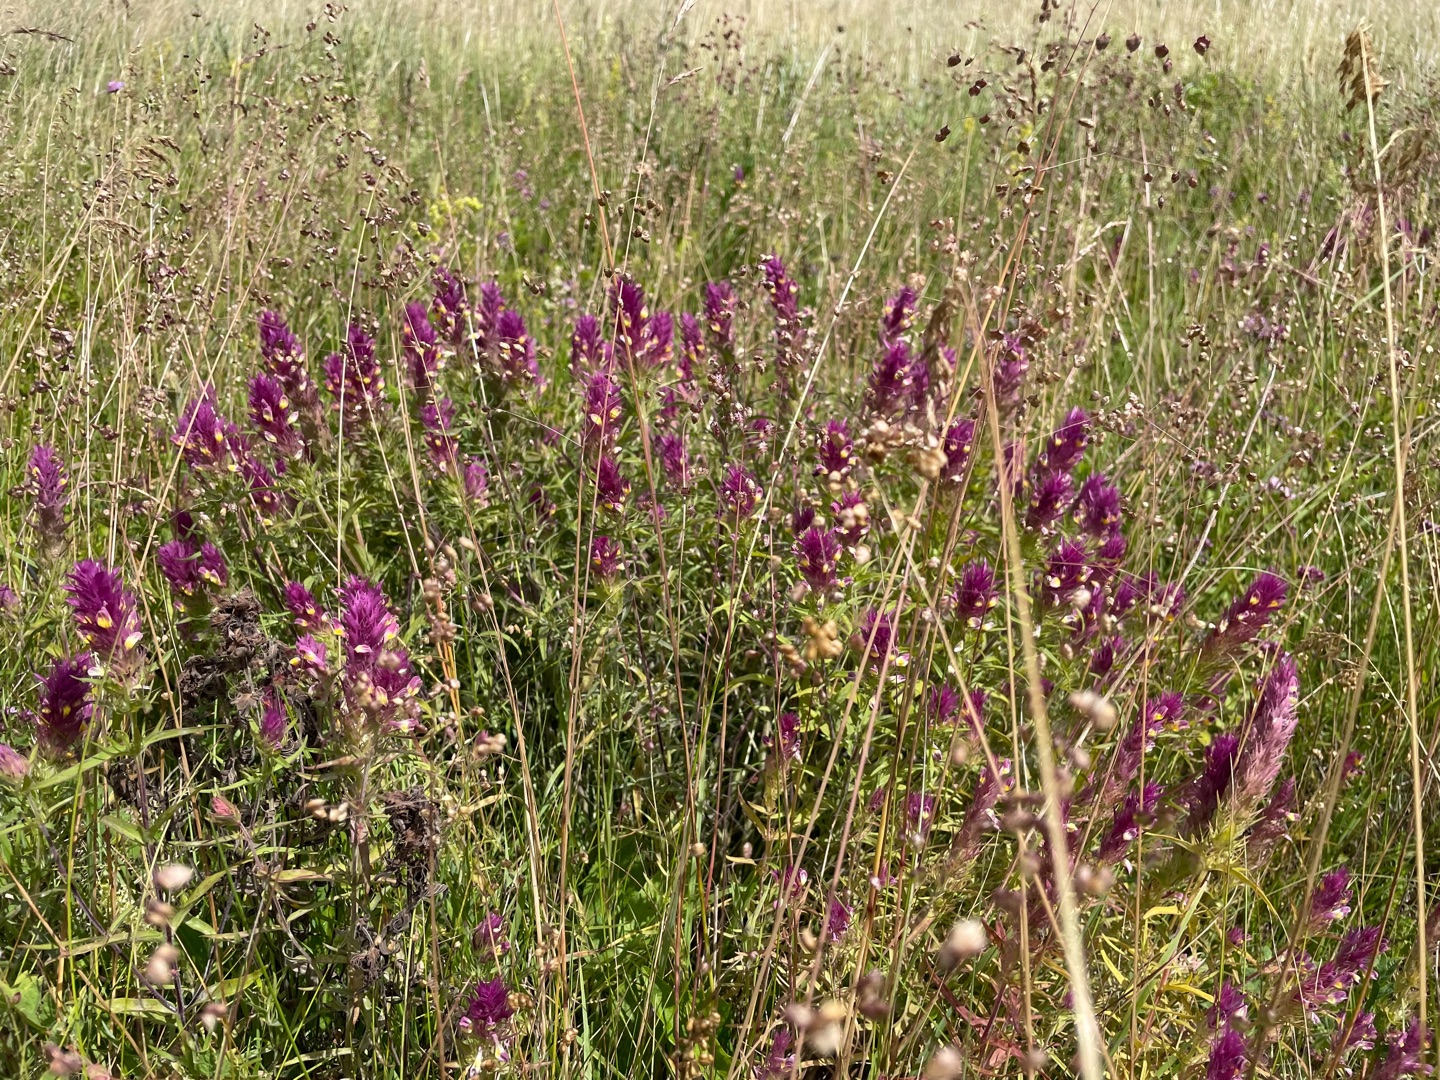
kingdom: Plantae
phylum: Tracheophyta
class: Magnoliopsida
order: Lamiales
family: Orobanchaceae
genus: Melampyrum
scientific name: Melampyrum arvense
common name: Ager-kohvede
